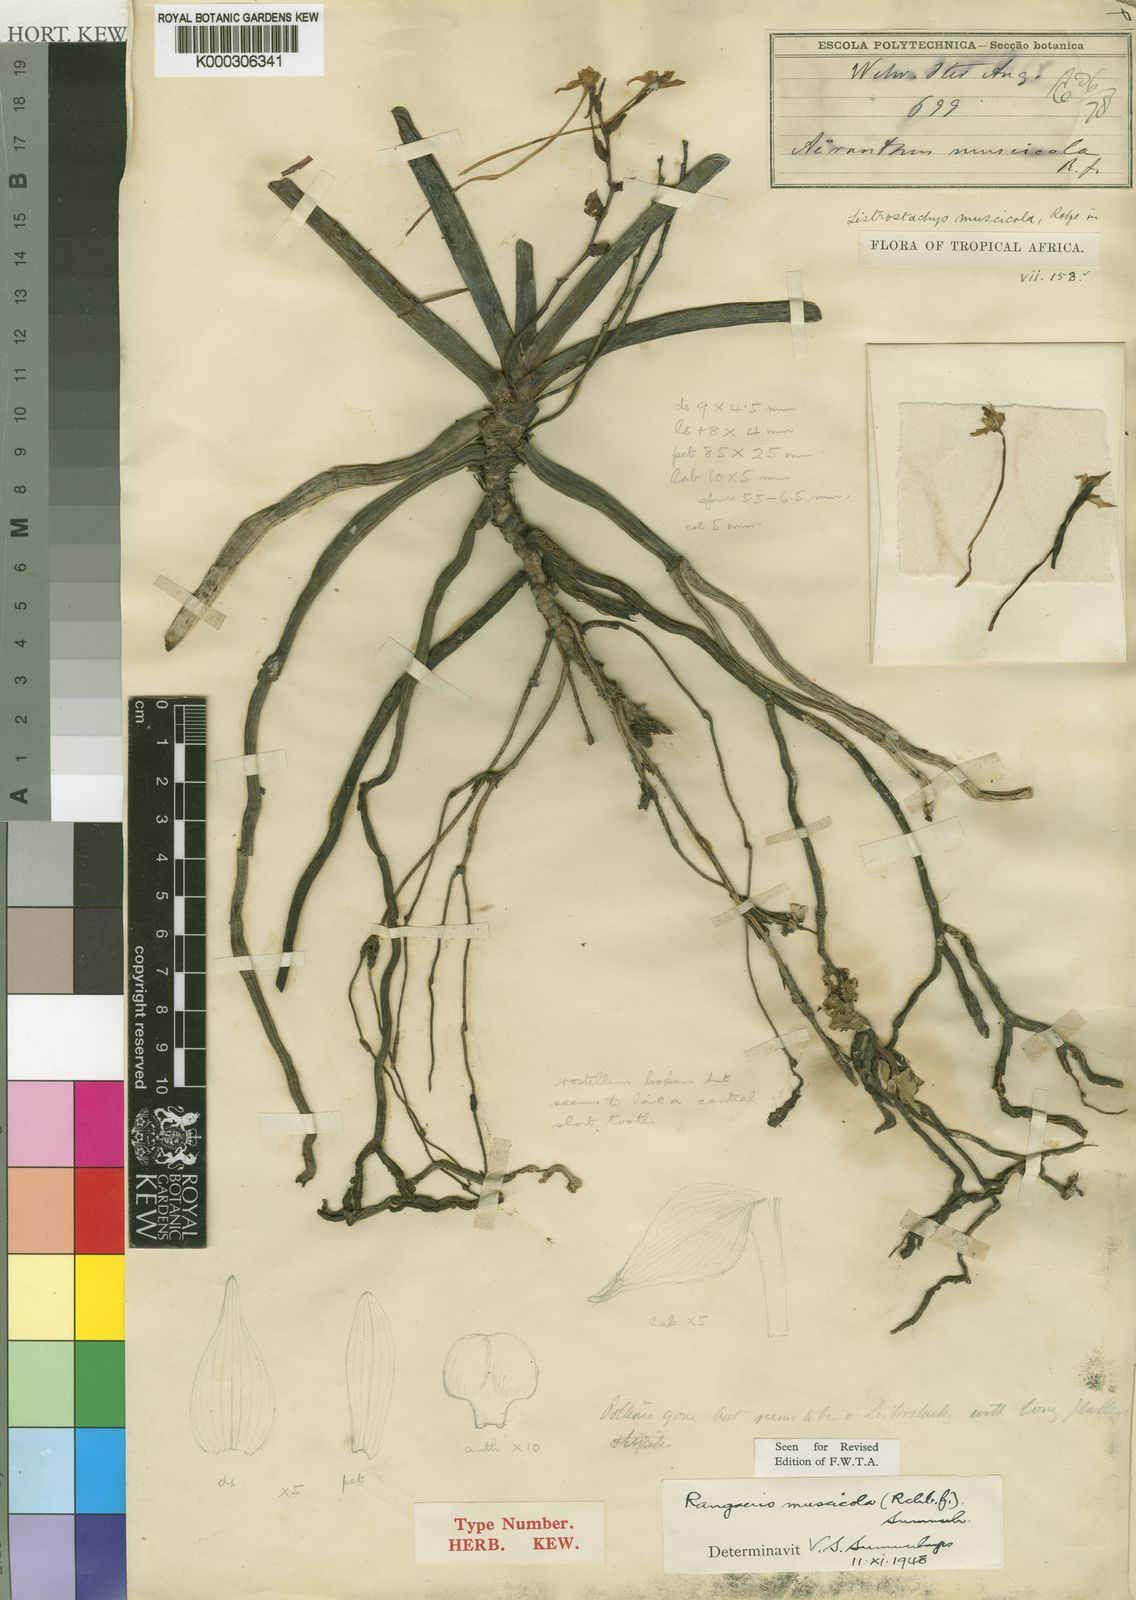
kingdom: Plantae
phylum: Tracheophyta
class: Liliopsida
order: Asparagales
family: Orchidaceae
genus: Rangaeris
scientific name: Rangaeris muscicola
